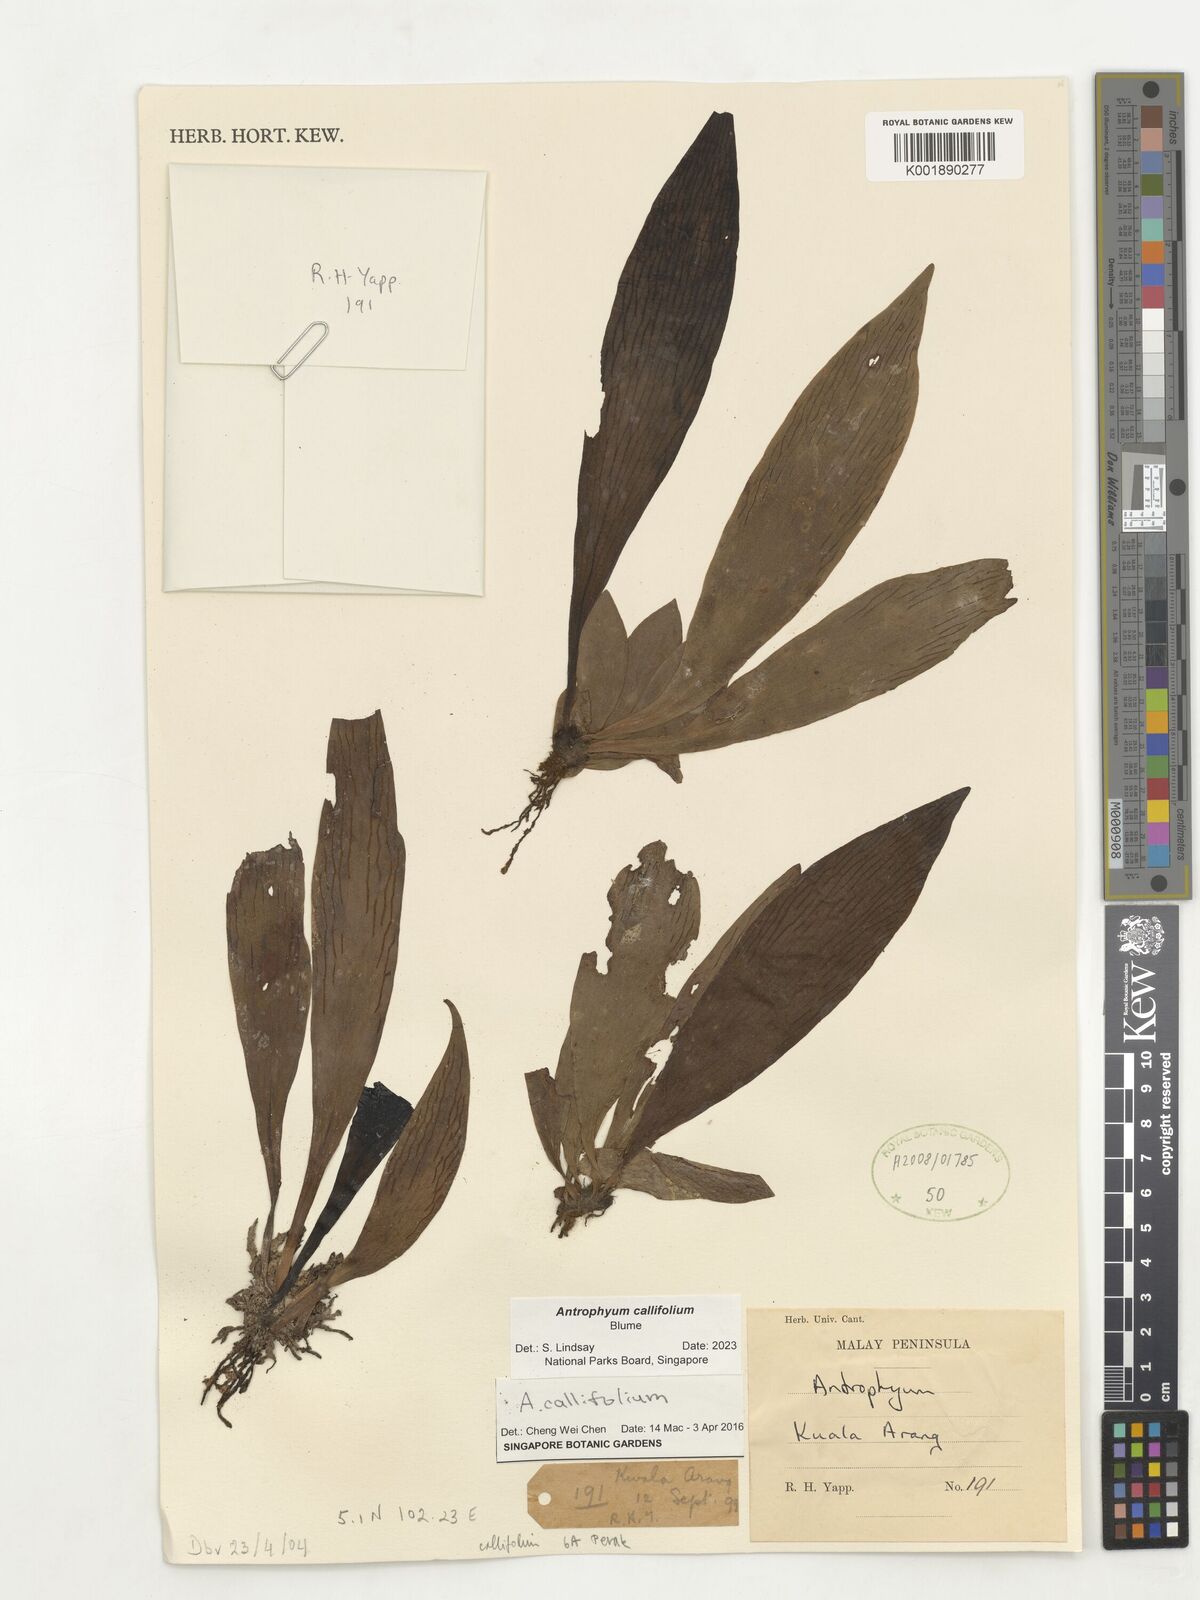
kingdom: Plantae
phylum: Tracheophyta
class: Polypodiopsida
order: Polypodiales
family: Pteridaceae
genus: Antrophyum
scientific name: Antrophyum callifolium
